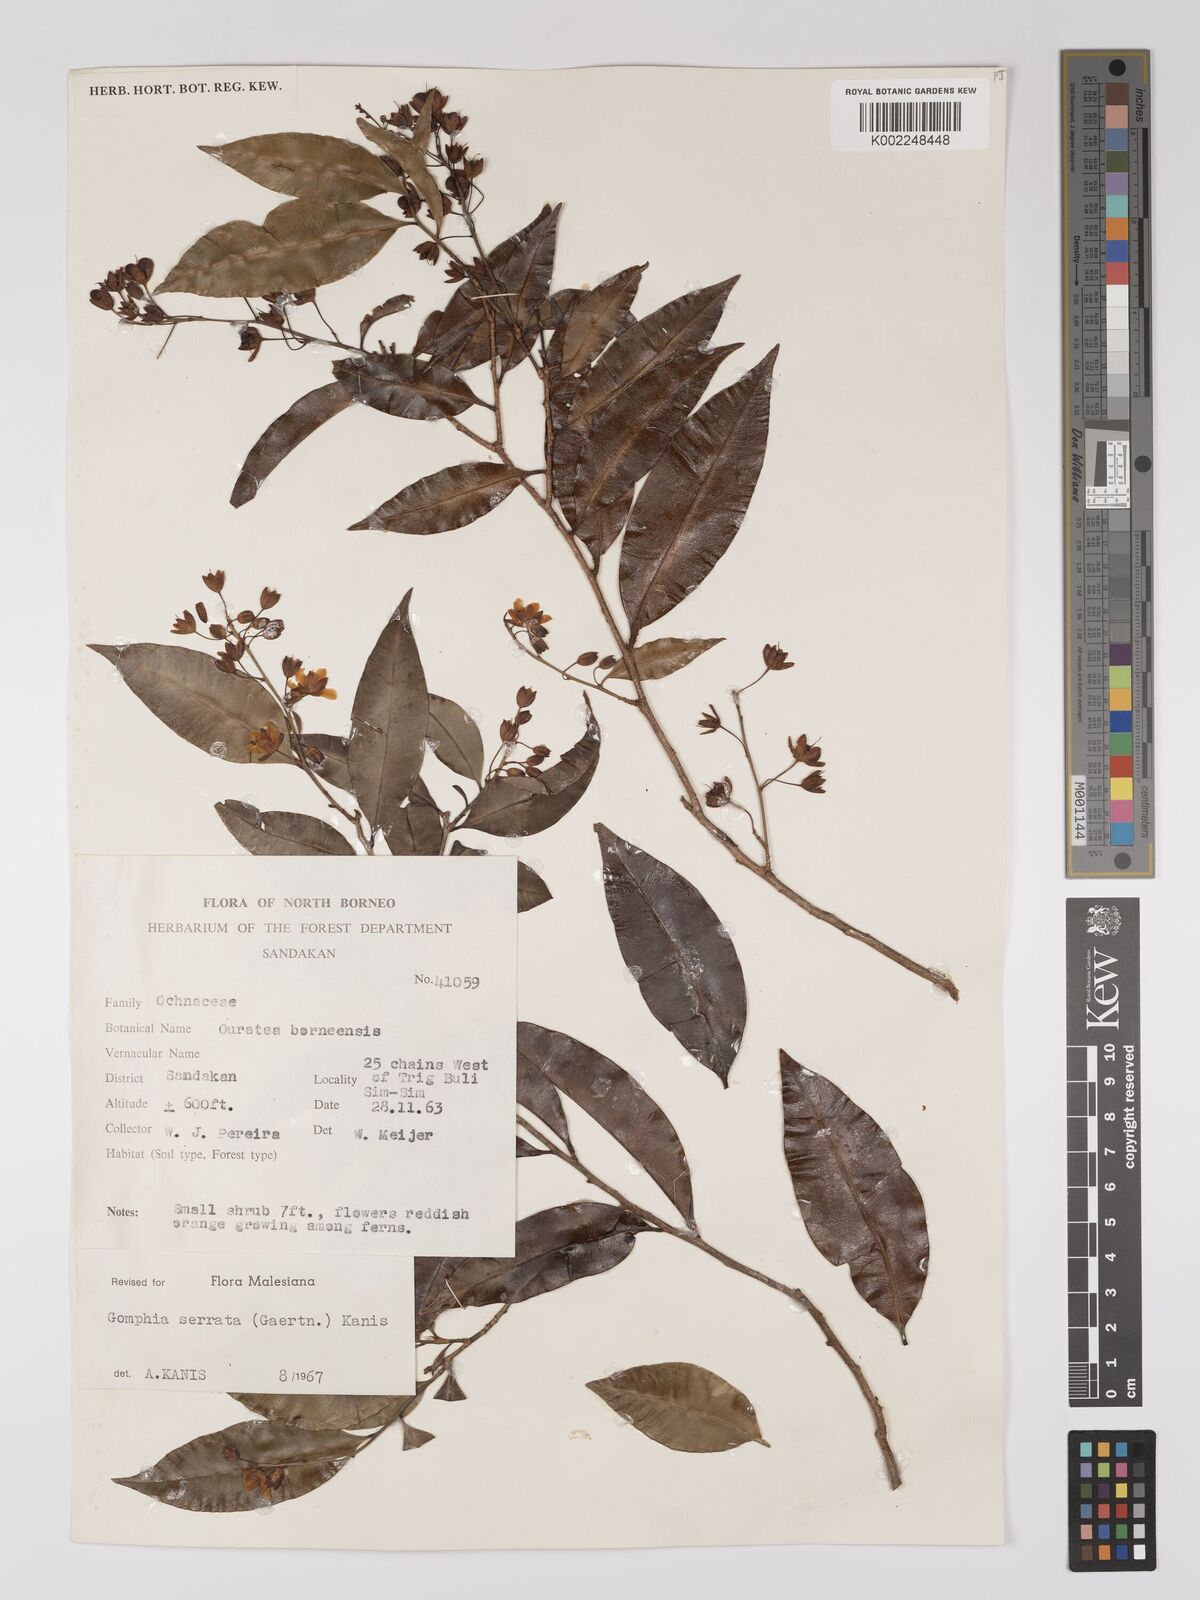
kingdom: Plantae
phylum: Tracheophyta
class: Magnoliopsida
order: Malpighiales
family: Ochnaceae
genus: Gomphia
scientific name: Gomphia serrata
